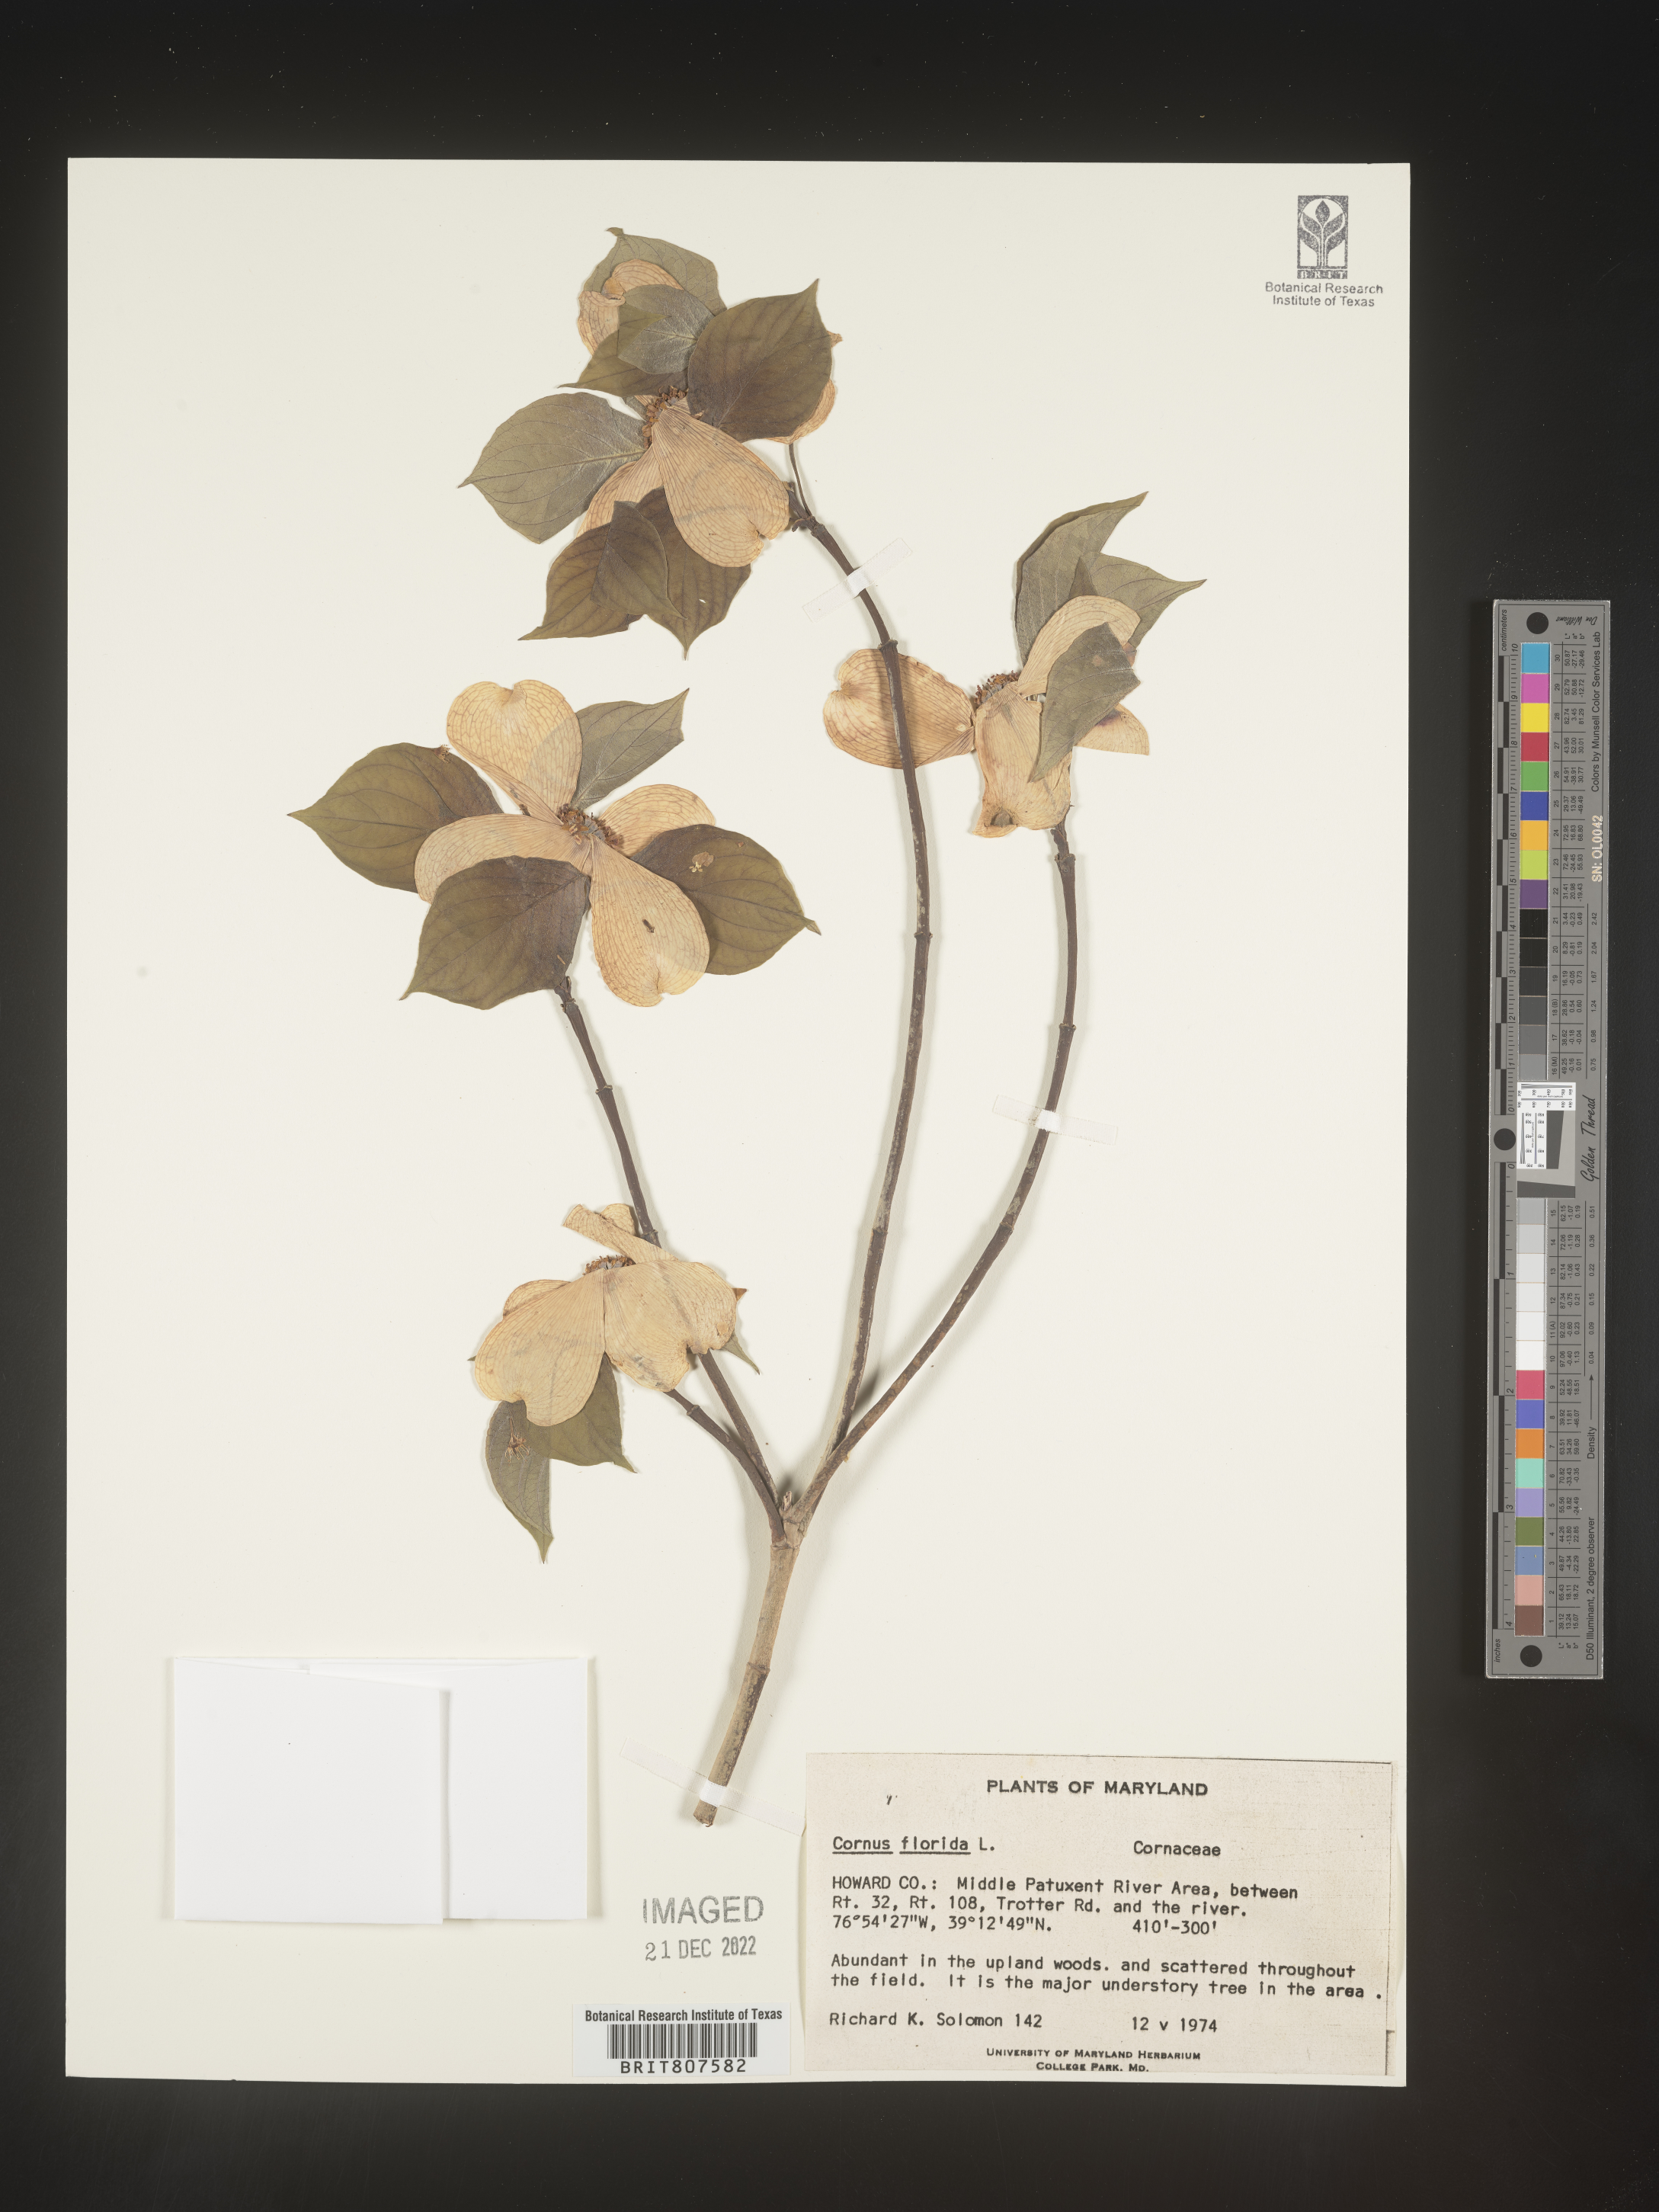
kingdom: Plantae
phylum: Tracheophyta
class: Magnoliopsida
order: Cornales
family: Cornaceae
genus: Cornus
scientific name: Cornus florida
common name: Flowering dogwood
